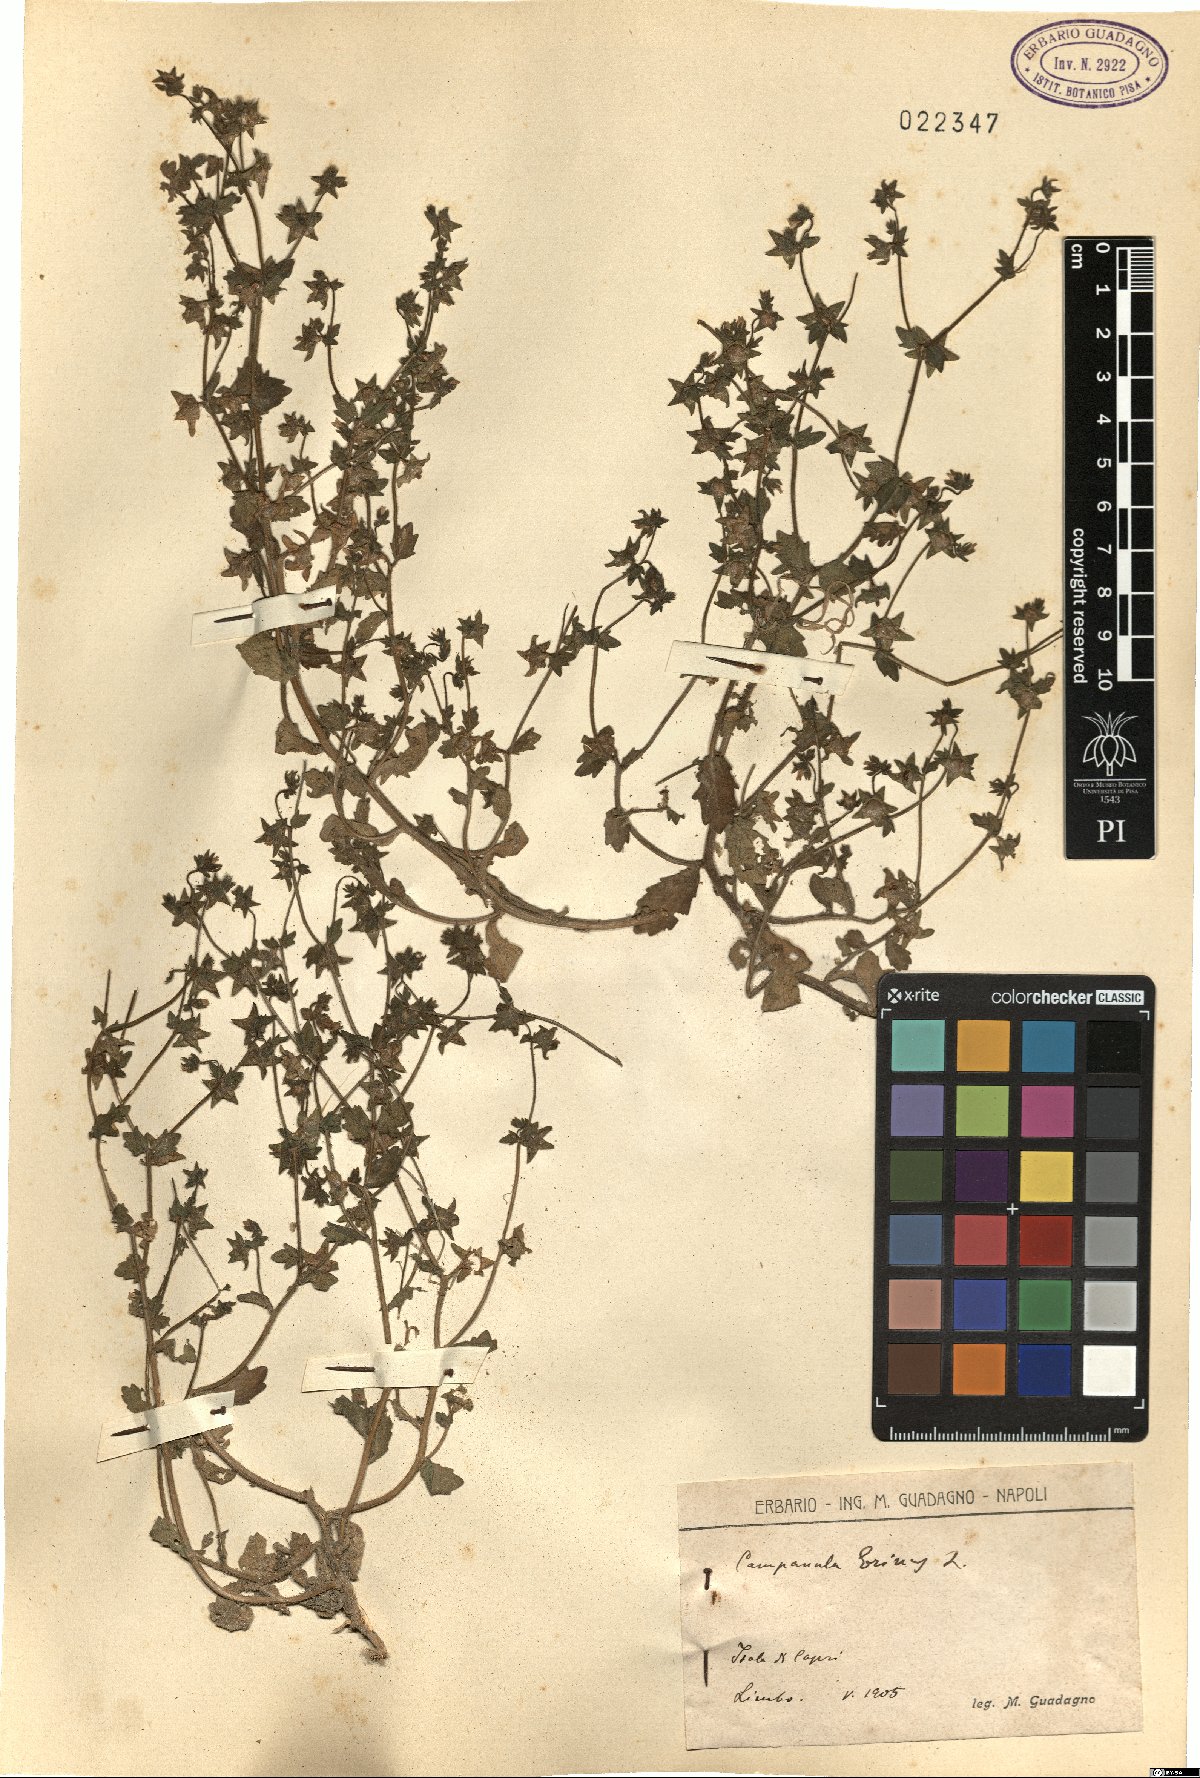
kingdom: Plantae
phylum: Tracheophyta
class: Magnoliopsida
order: Asterales
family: Campanulaceae
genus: Campanula
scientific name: Campanula erinus
